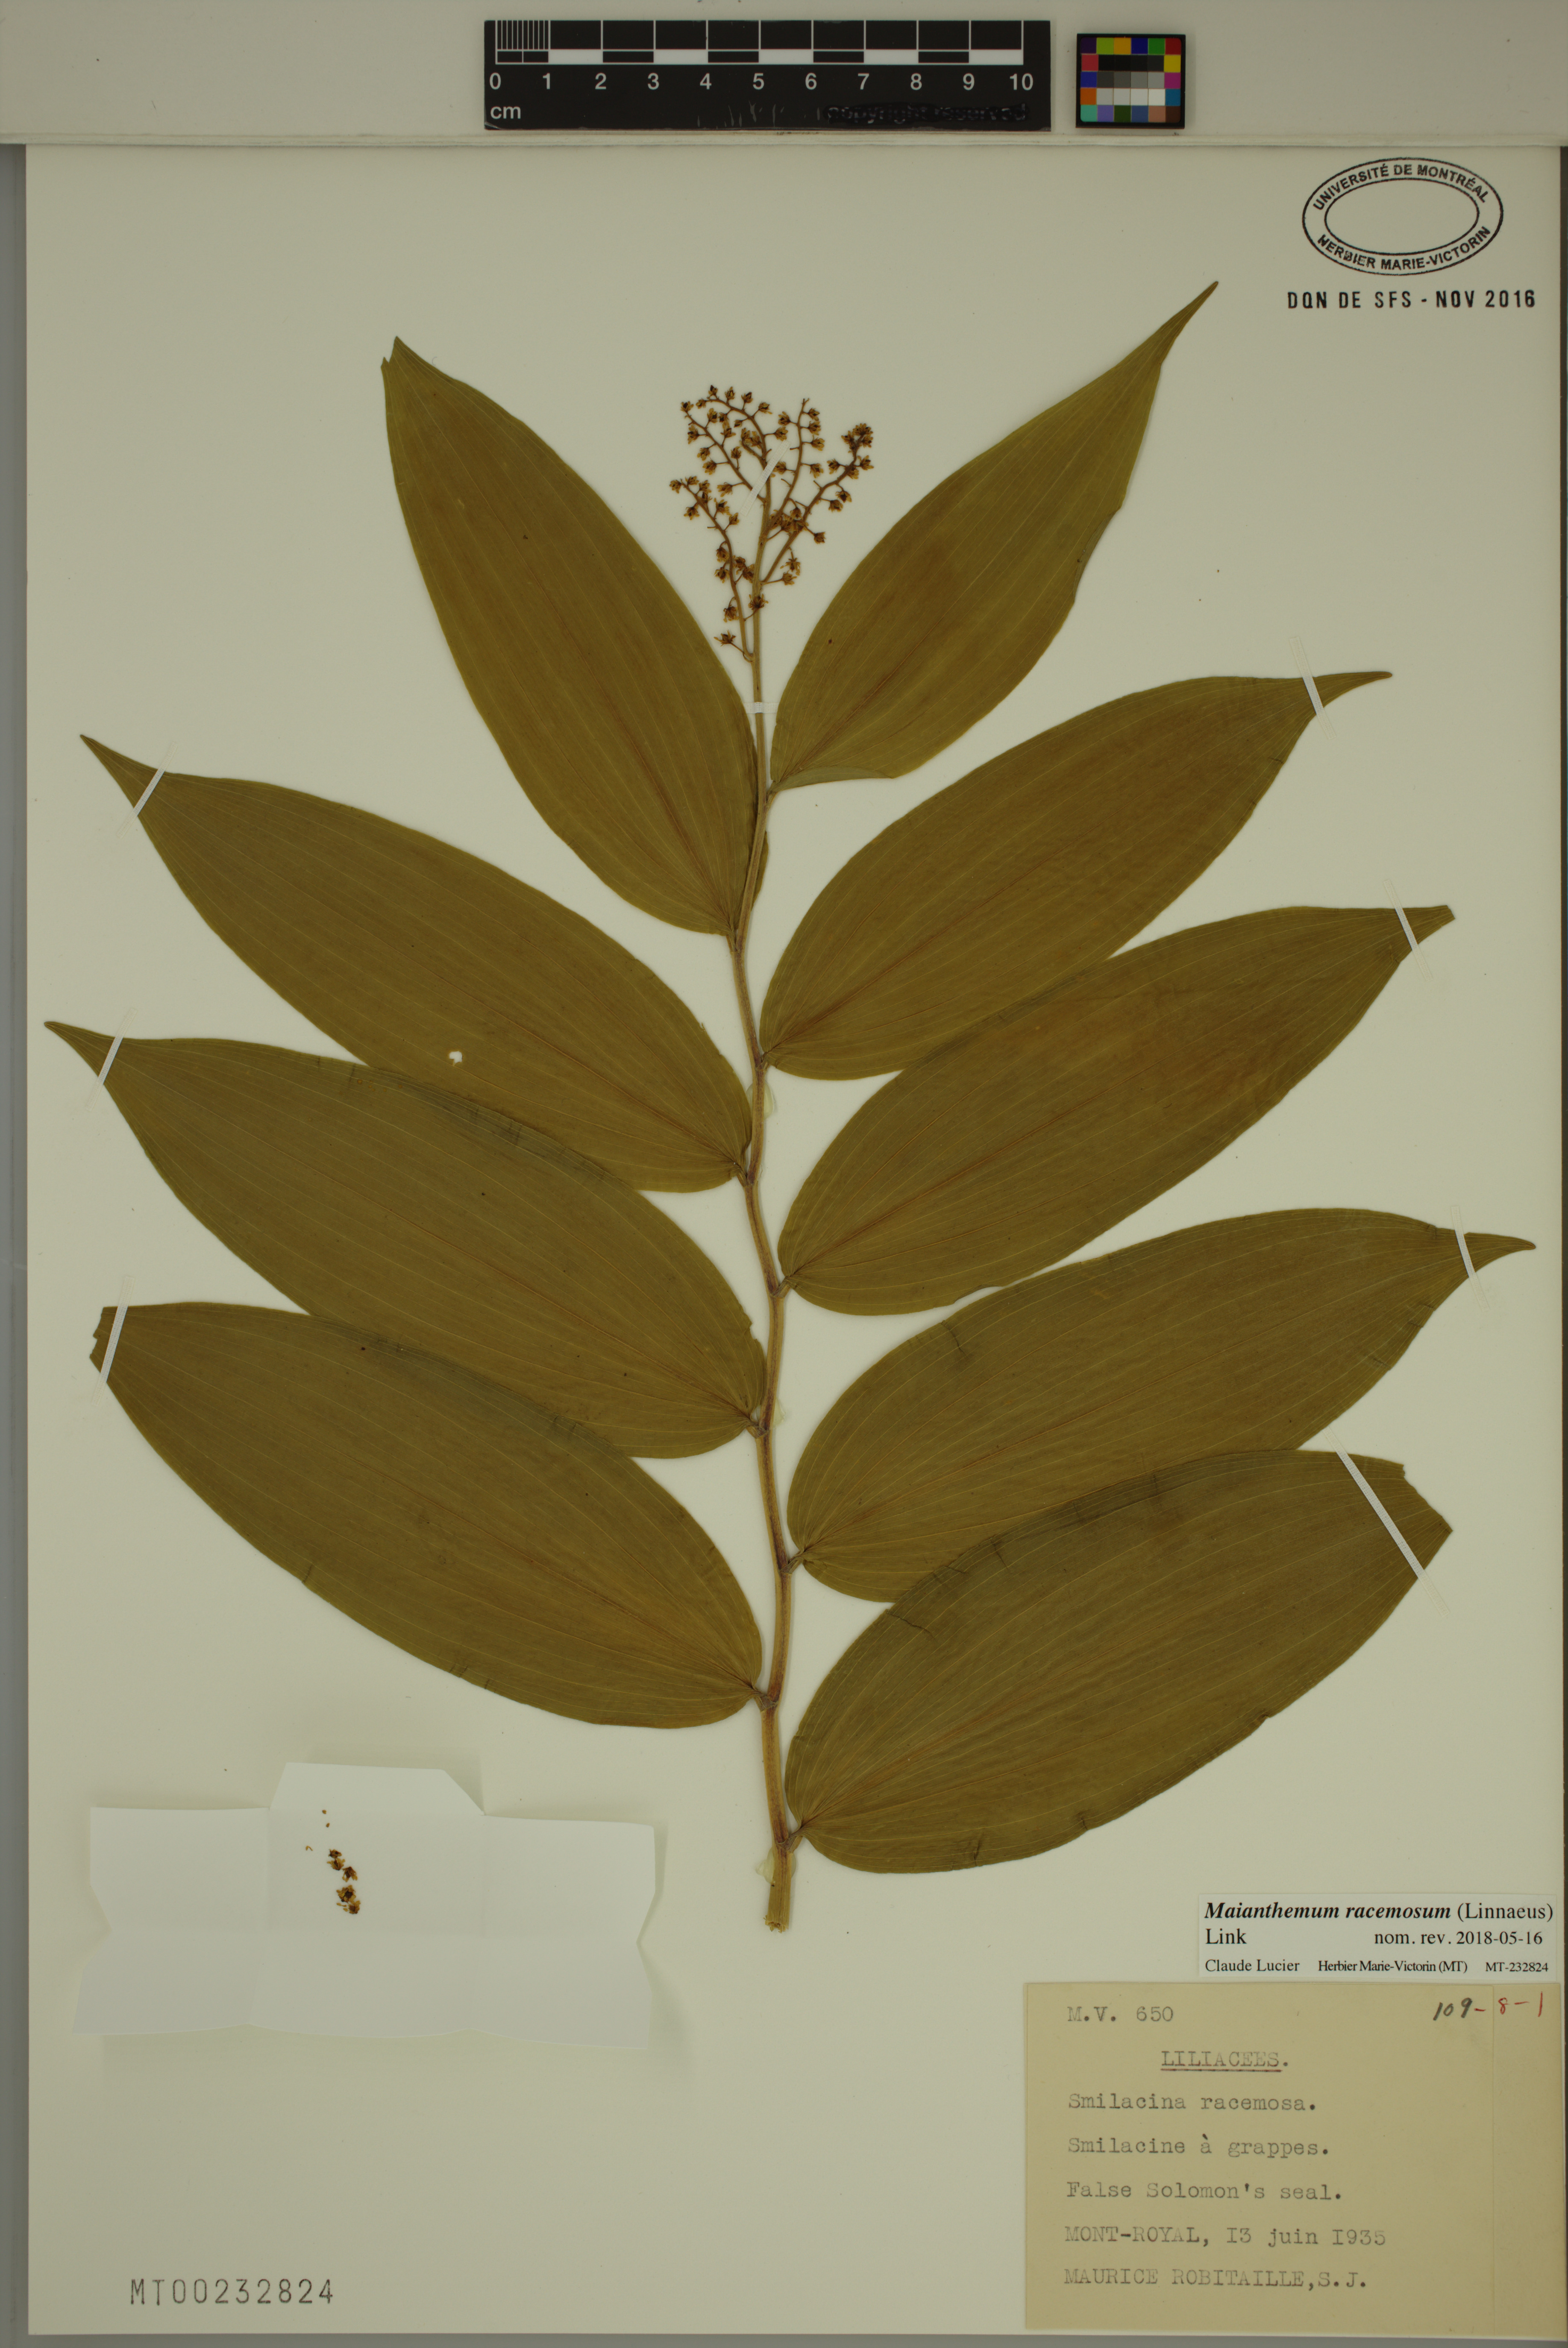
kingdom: Plantae
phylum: Tracheophyta
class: Liliopsida
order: Asparagales
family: Asparagaceae
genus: Maianthemum
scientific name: Maianthemum racemosum
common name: False spikenard
